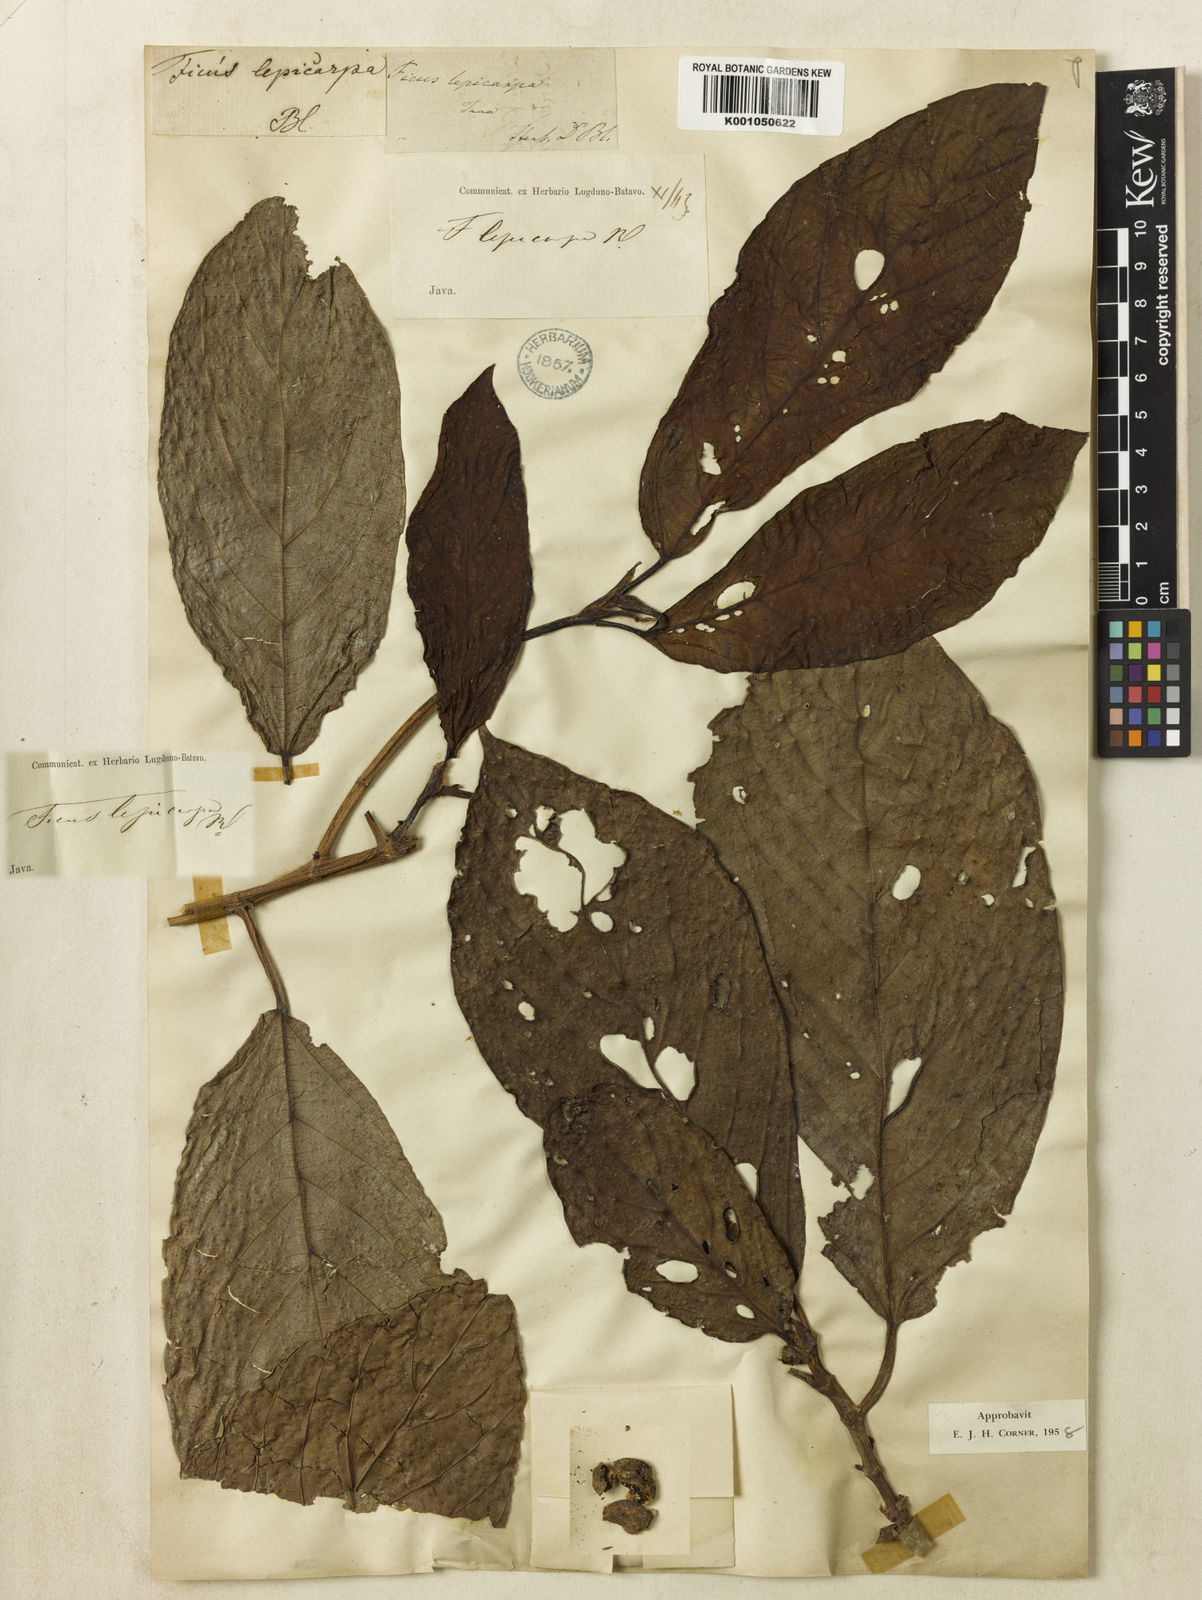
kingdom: Plantae
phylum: Tracheophyta
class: Magnoliopsida
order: Rosales
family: Moraceae
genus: Ficus
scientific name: Ficus leiocarpa
